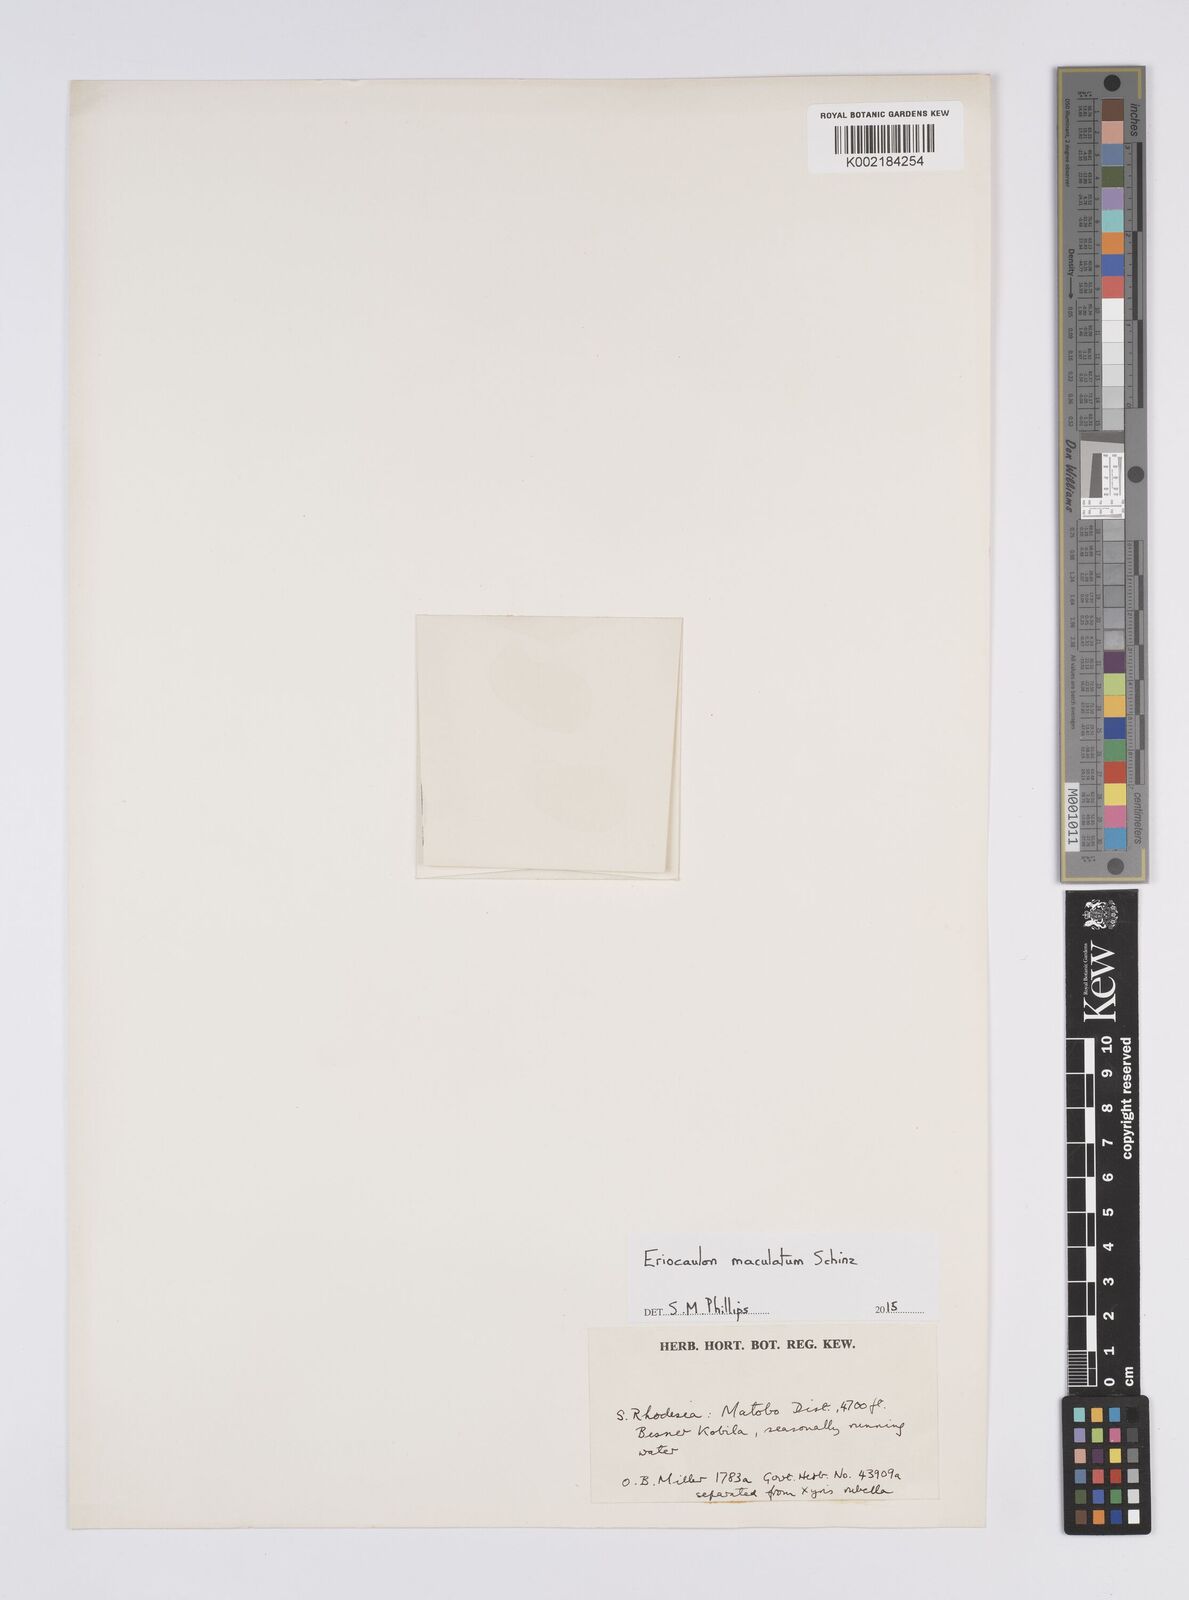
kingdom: Plantae
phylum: Tracheophyta
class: Liliopsida
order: Poales
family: Eriocaulaceae
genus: Eriocaulon
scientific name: Eriocaulon maculatum
